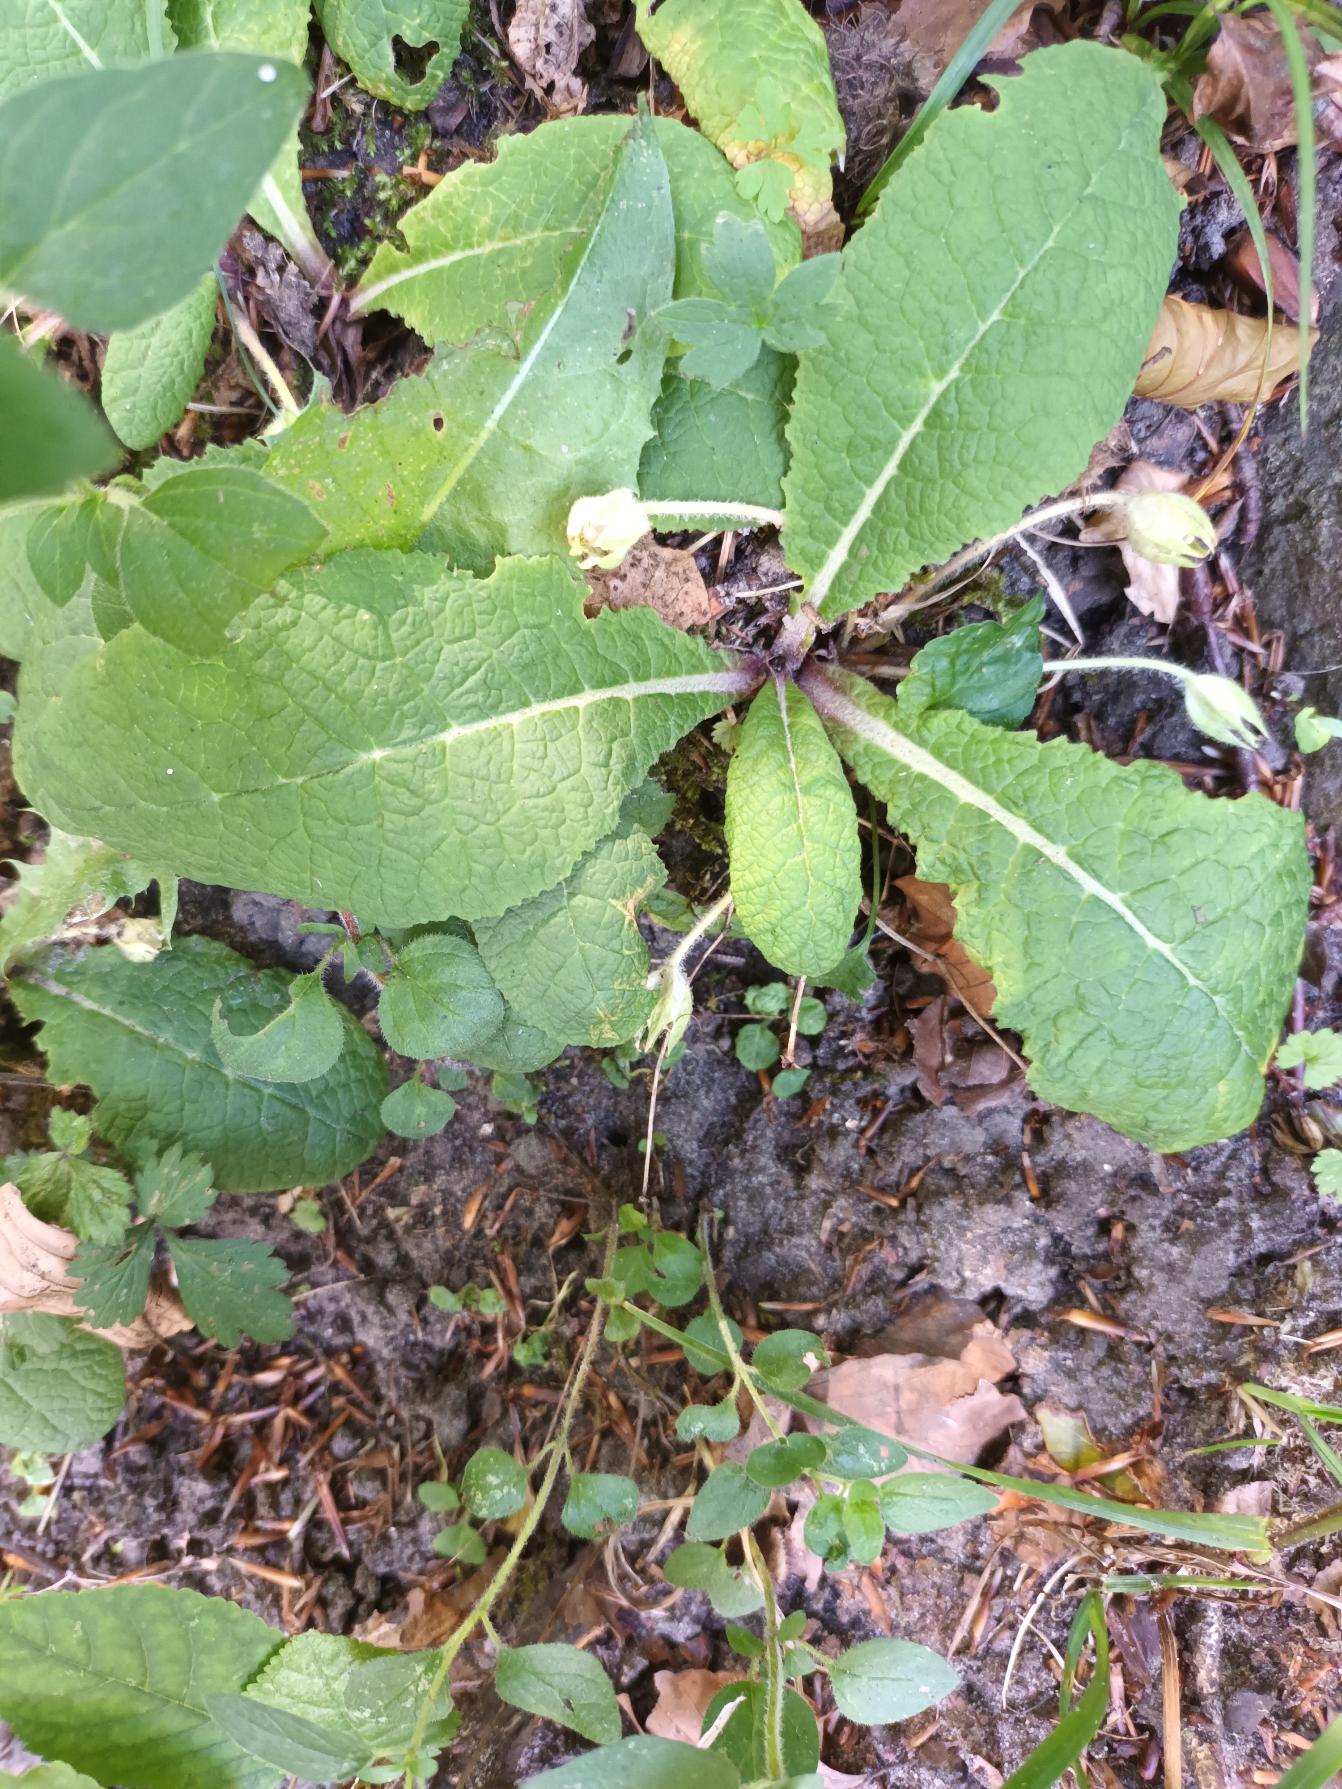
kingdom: Plantae
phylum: Tracheophyta
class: Magnoliopsida
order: Ericales
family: Primulaceae
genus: Primula
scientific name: Primula vulgaris
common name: Storblomstret kodriver
